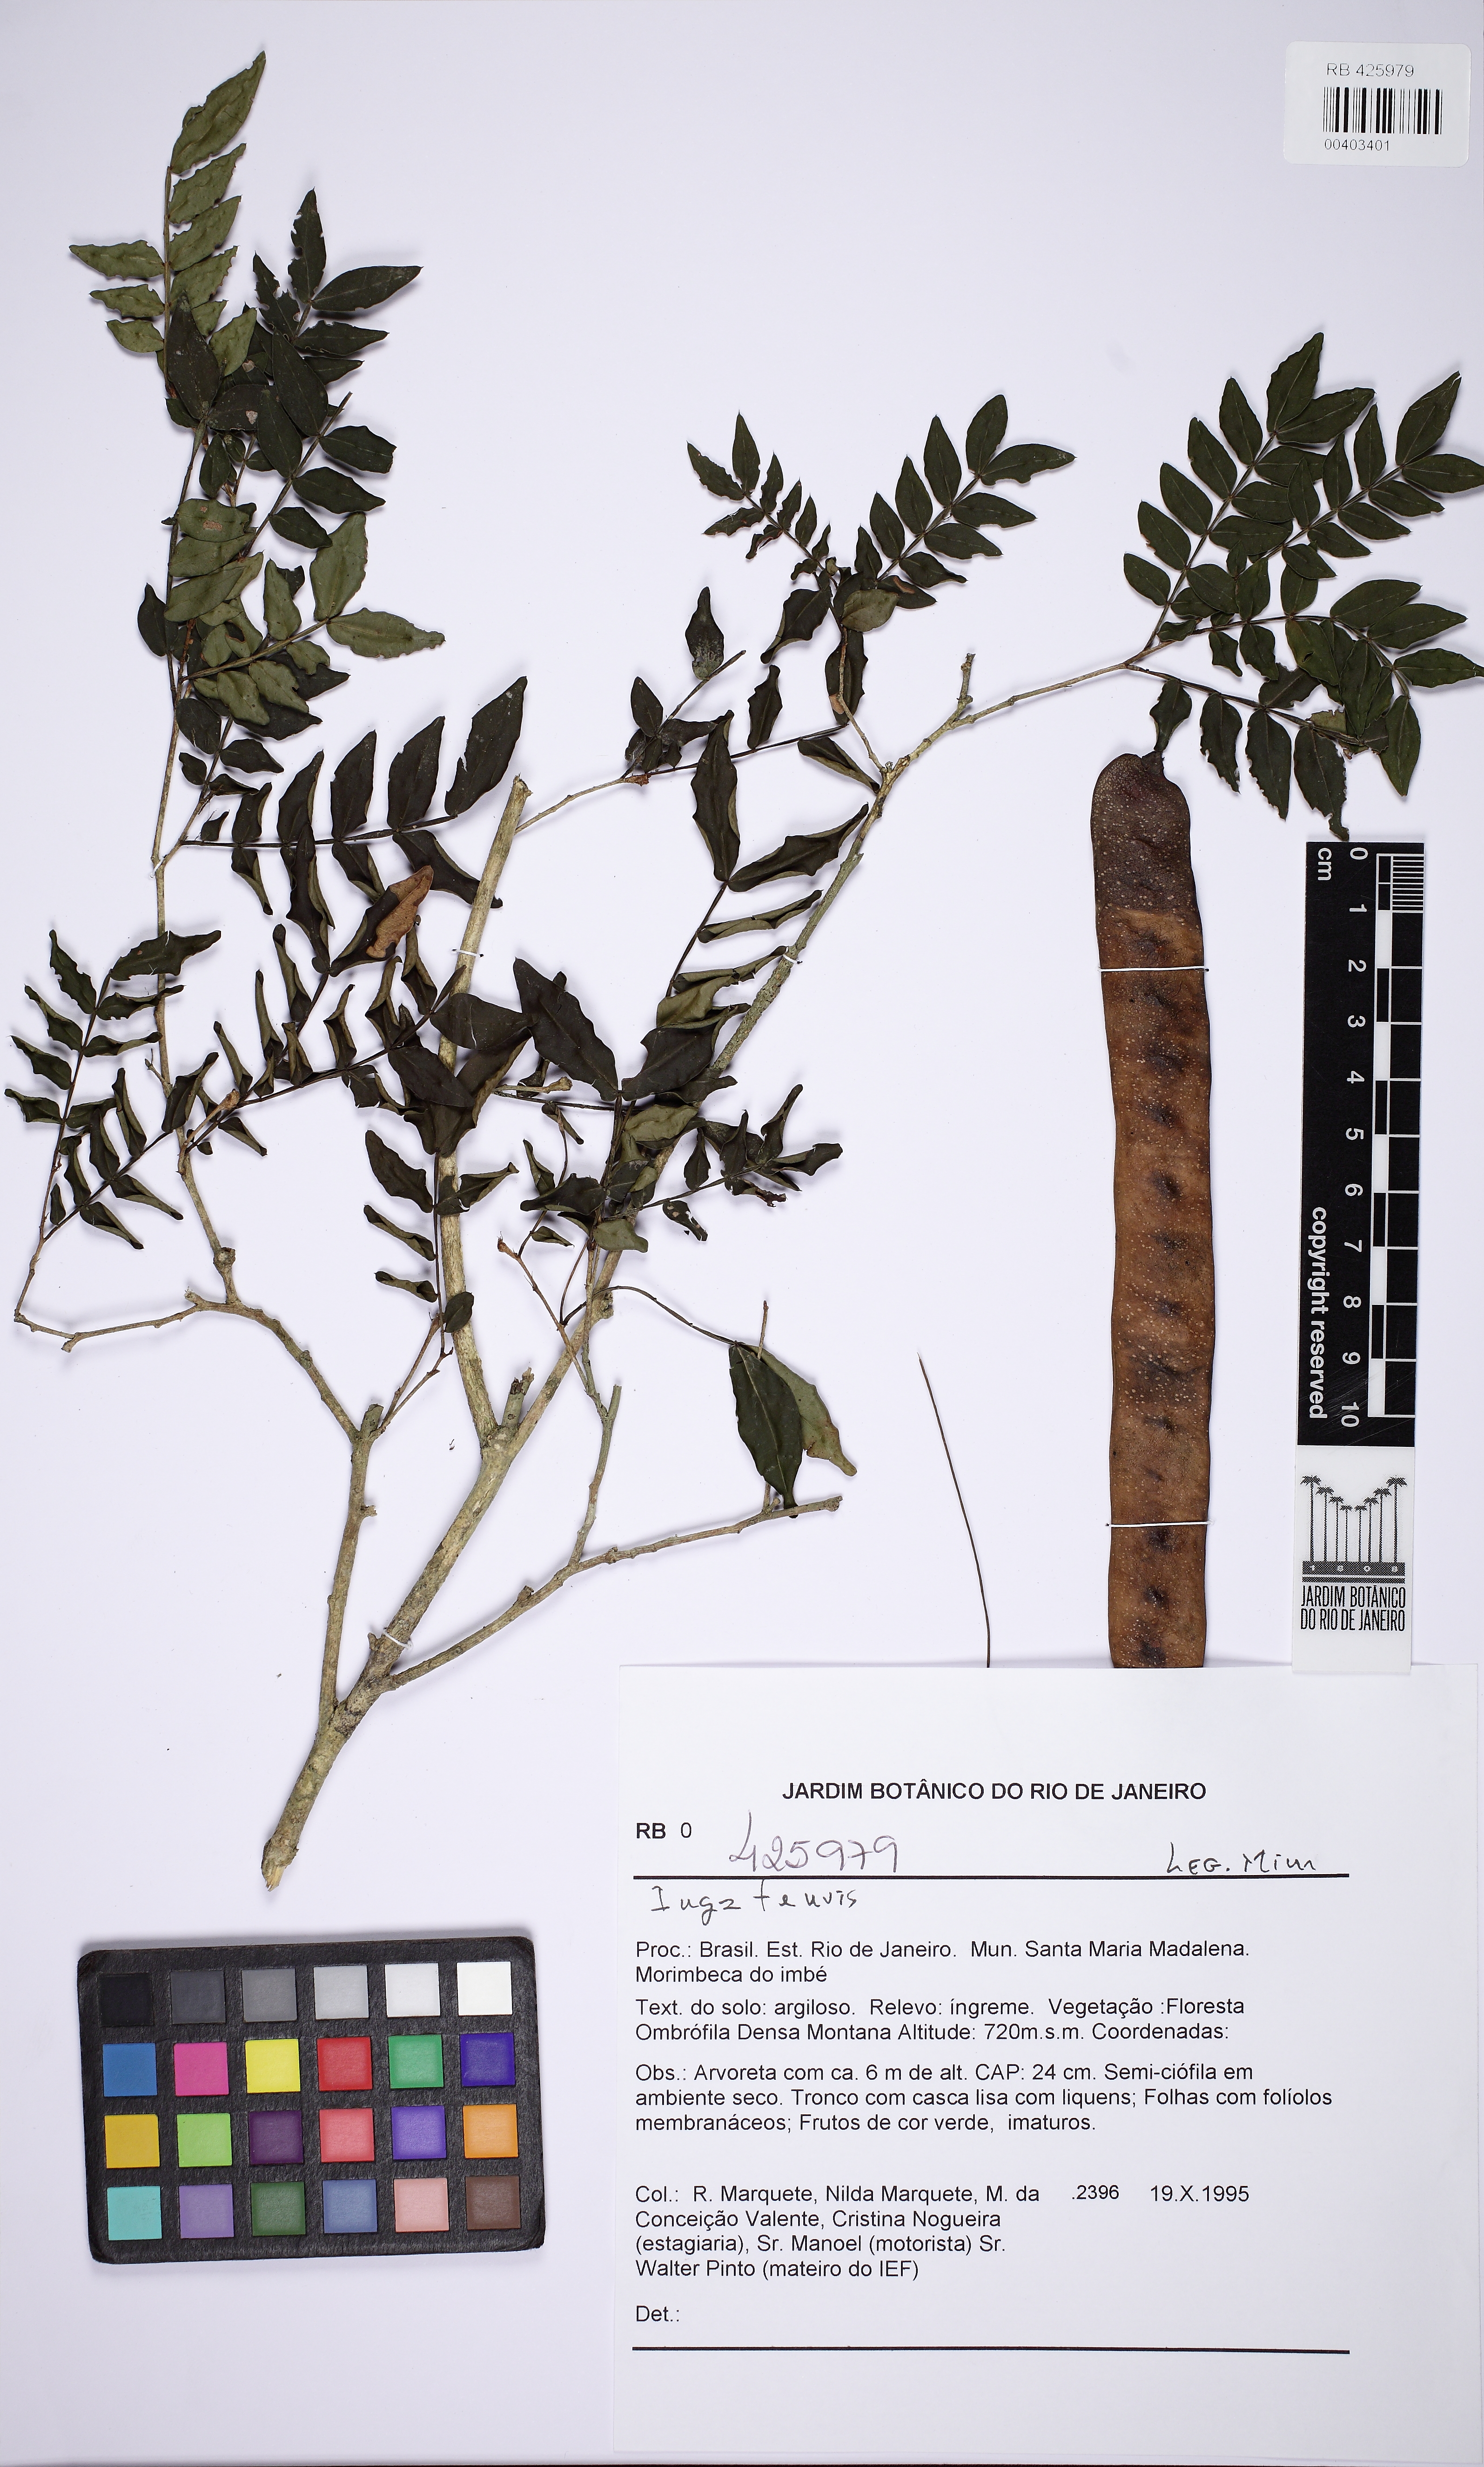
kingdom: Plantae
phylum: Tracheophyta
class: Magnoliopsida
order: Fabales
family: Fabaceae
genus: Inga
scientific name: Inga tenuis
